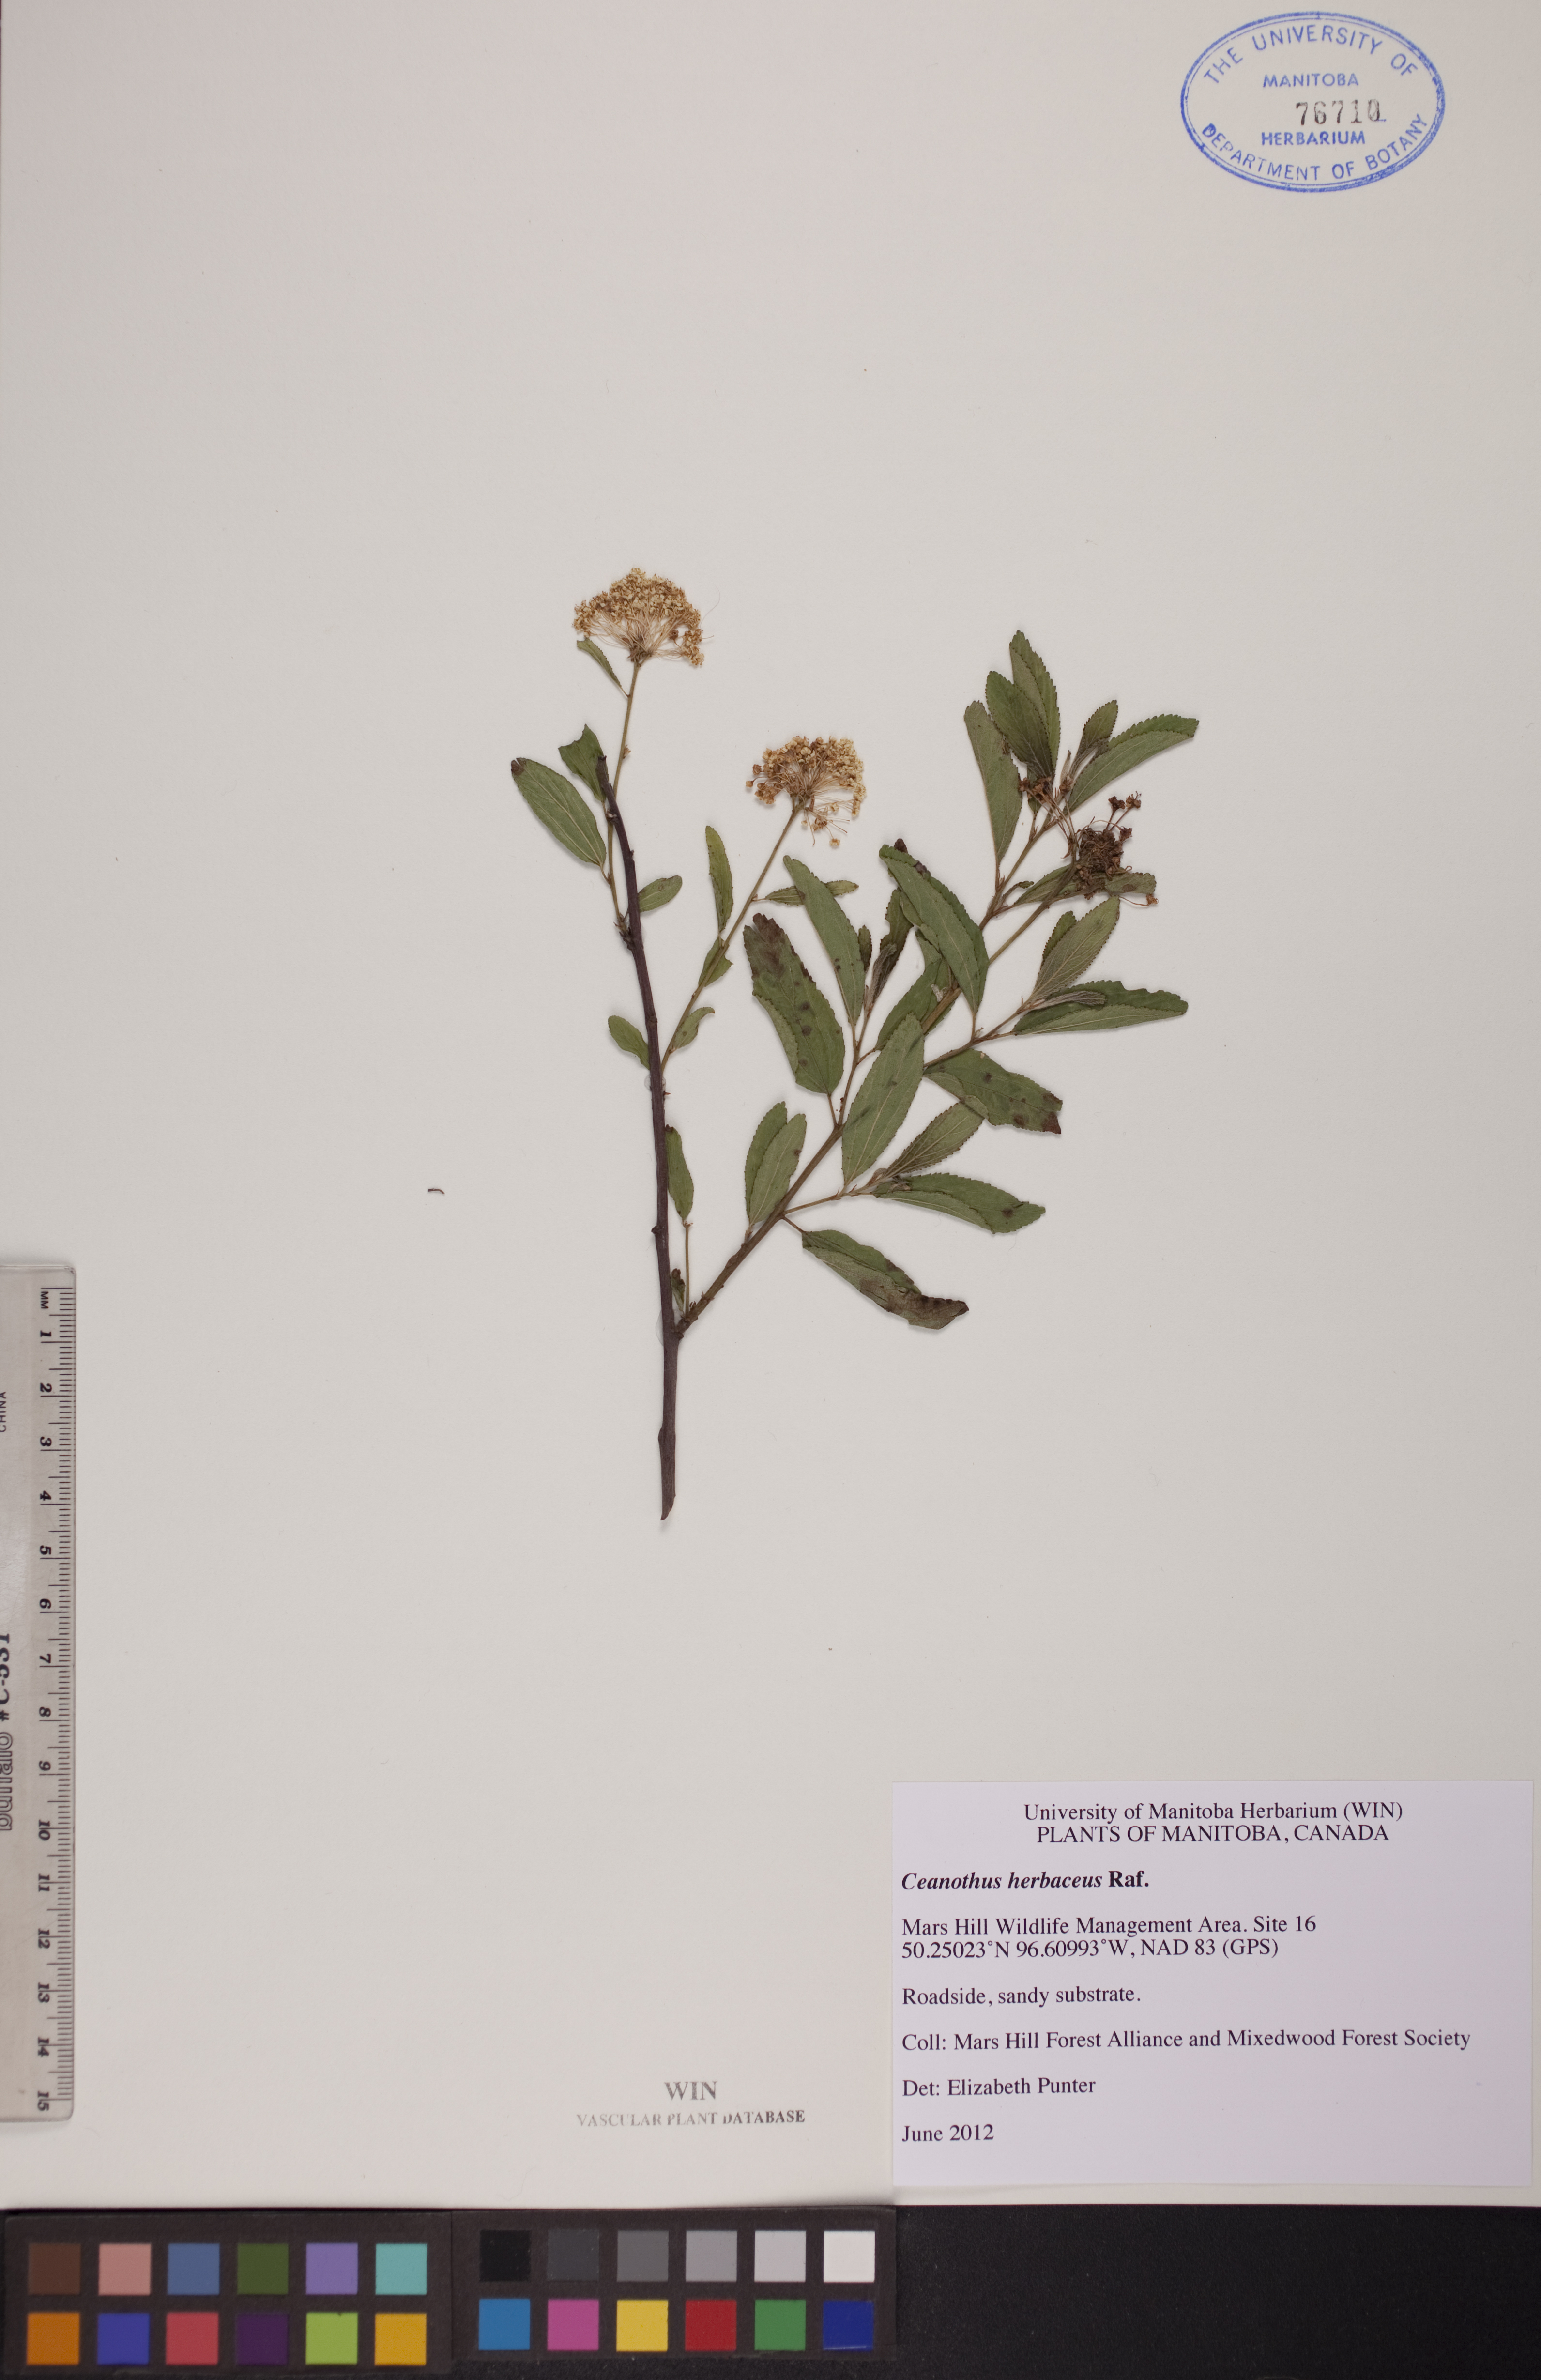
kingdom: Plantae
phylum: Tracheophyta
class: Magnoliopsida
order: Rosales
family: Rhamnaceae
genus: Ceanothus
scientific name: Ceanothus herbaceus
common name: Inland ceanothus
